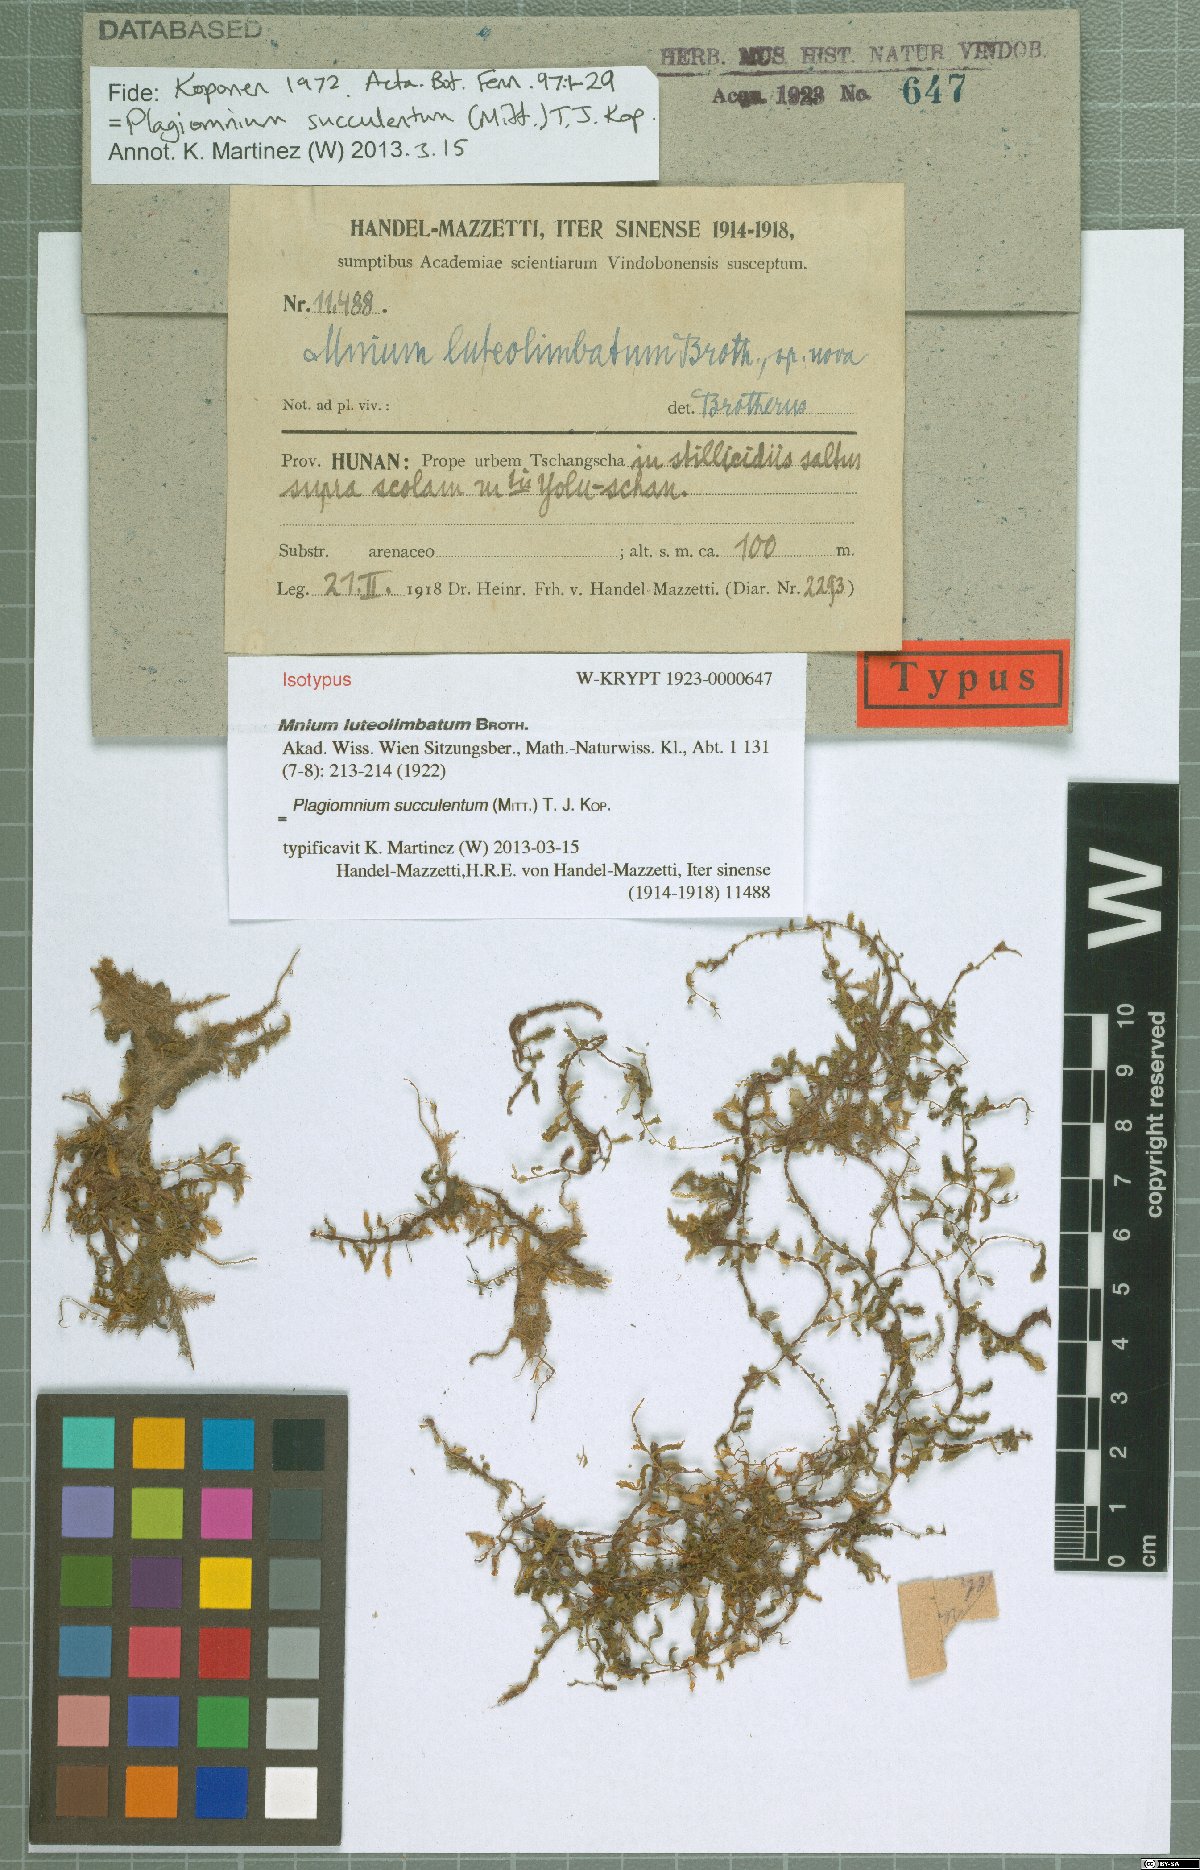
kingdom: Plantae
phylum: Bryophyta
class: Bryopsida
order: Bryales
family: Mniaceae
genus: Plagiomnium
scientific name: Plagiomnium succulentum
